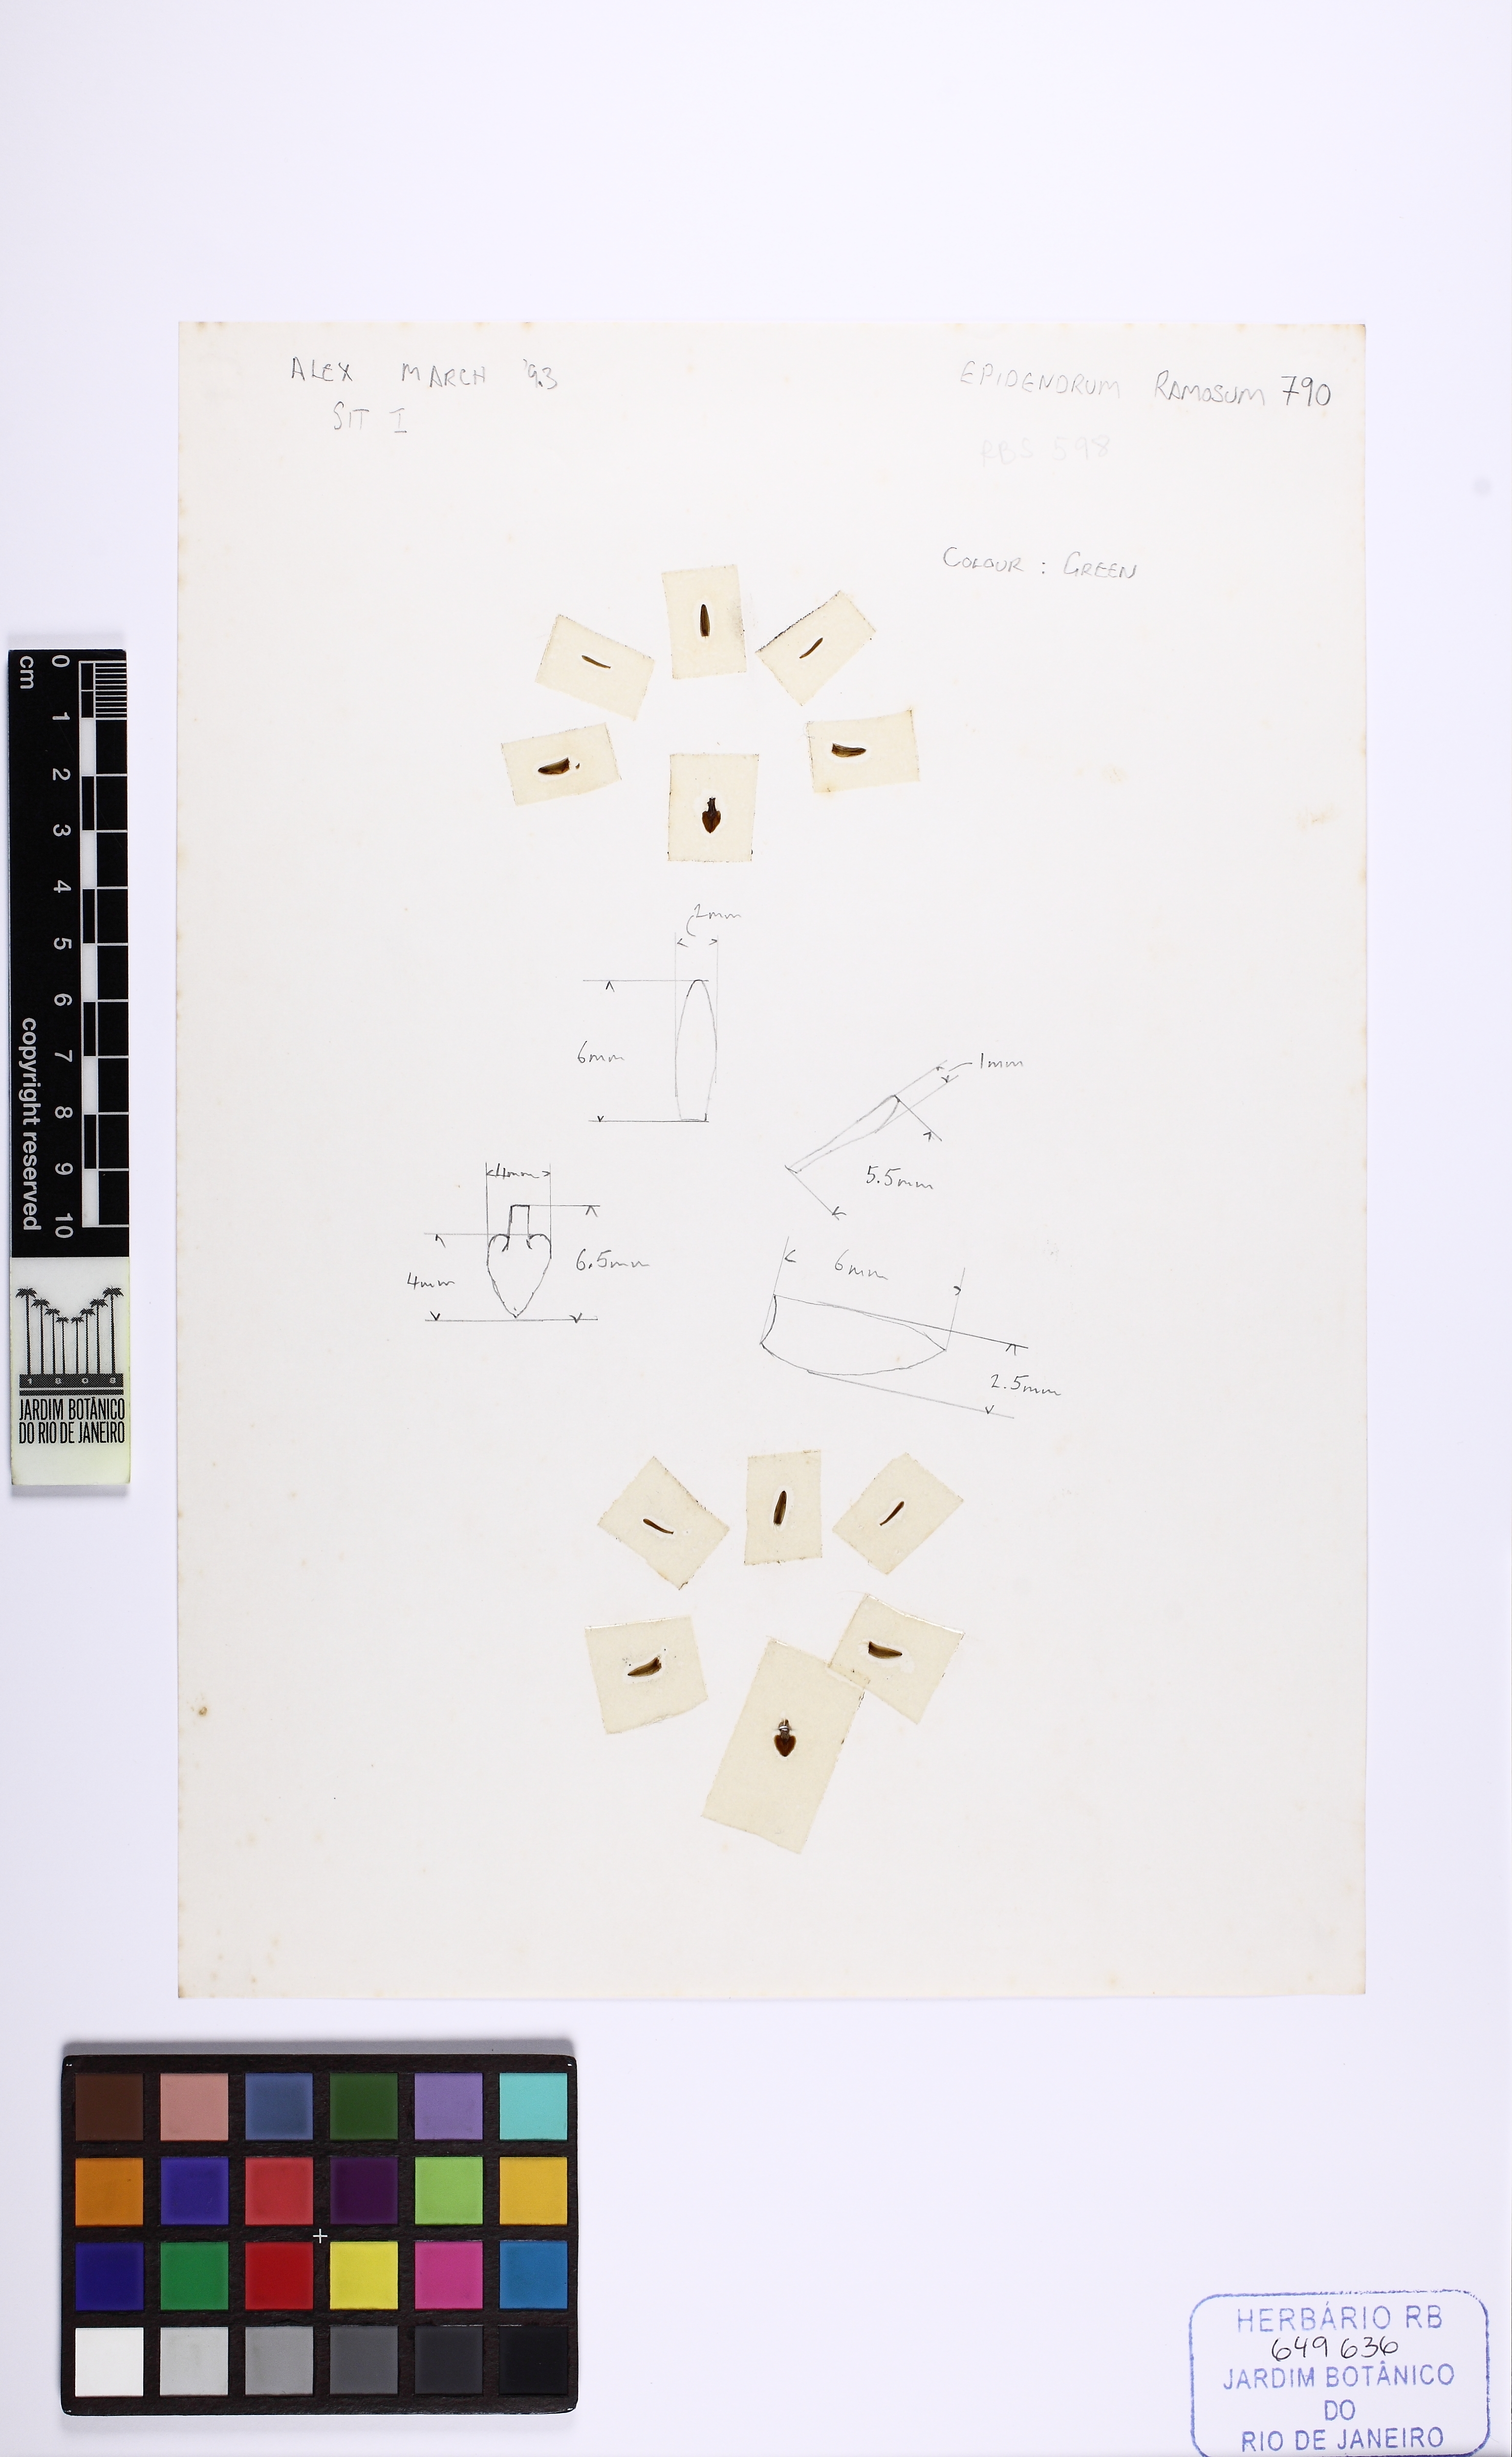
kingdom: Plantae
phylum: Tracheophyta
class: Liliopsida
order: Asparagales
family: Orchidaceae
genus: Epidendrum
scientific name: Epidendrum ramosum
